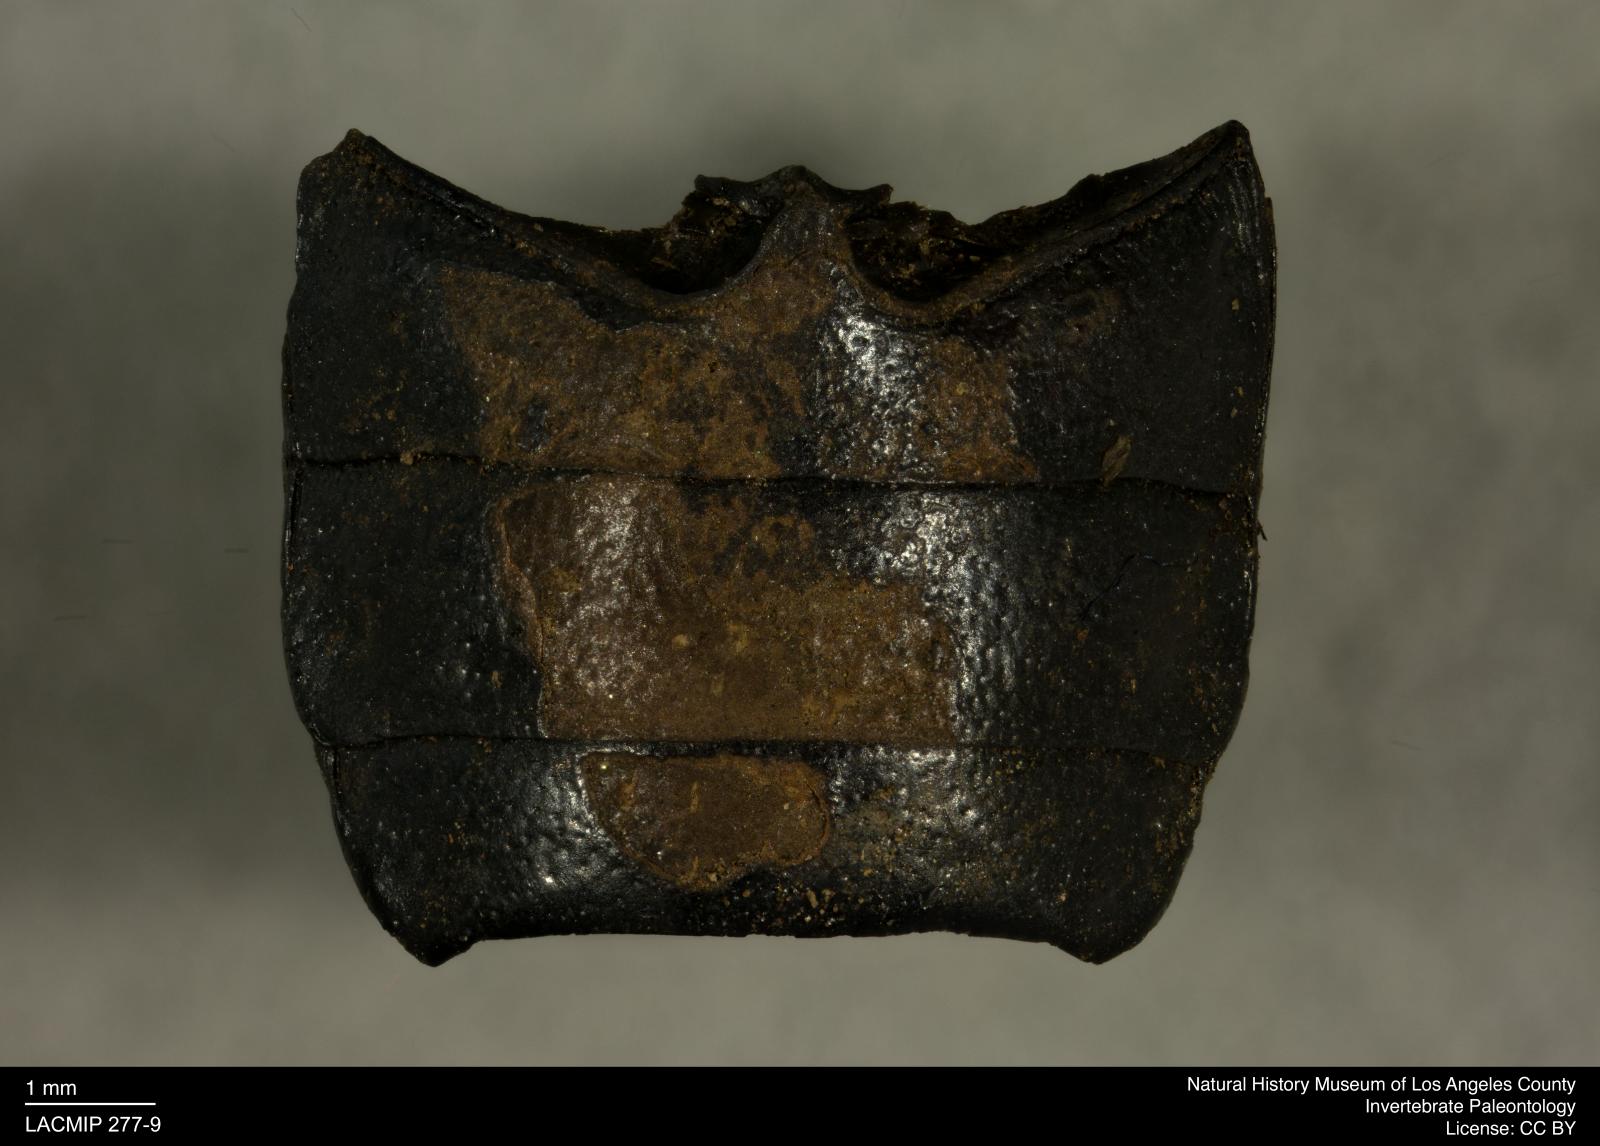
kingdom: Animalia
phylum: Arthropoda
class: Insecta
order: Coleoptera
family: Tenebrionidae
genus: Coniontis
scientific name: Coniontis abdominalis
